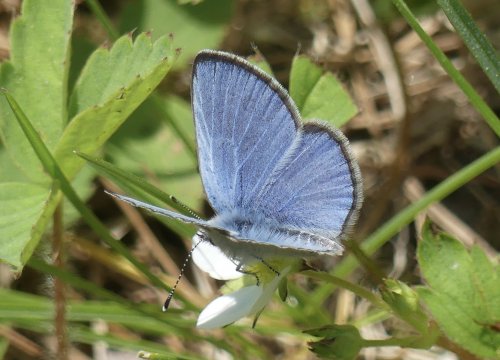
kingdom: Animalia
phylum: Arthropoda
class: Insecta
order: Lepidoptera
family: Lycaenidae
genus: Glaucopsyche
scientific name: Glaucopsyche lygdamus
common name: Silvery Blue
